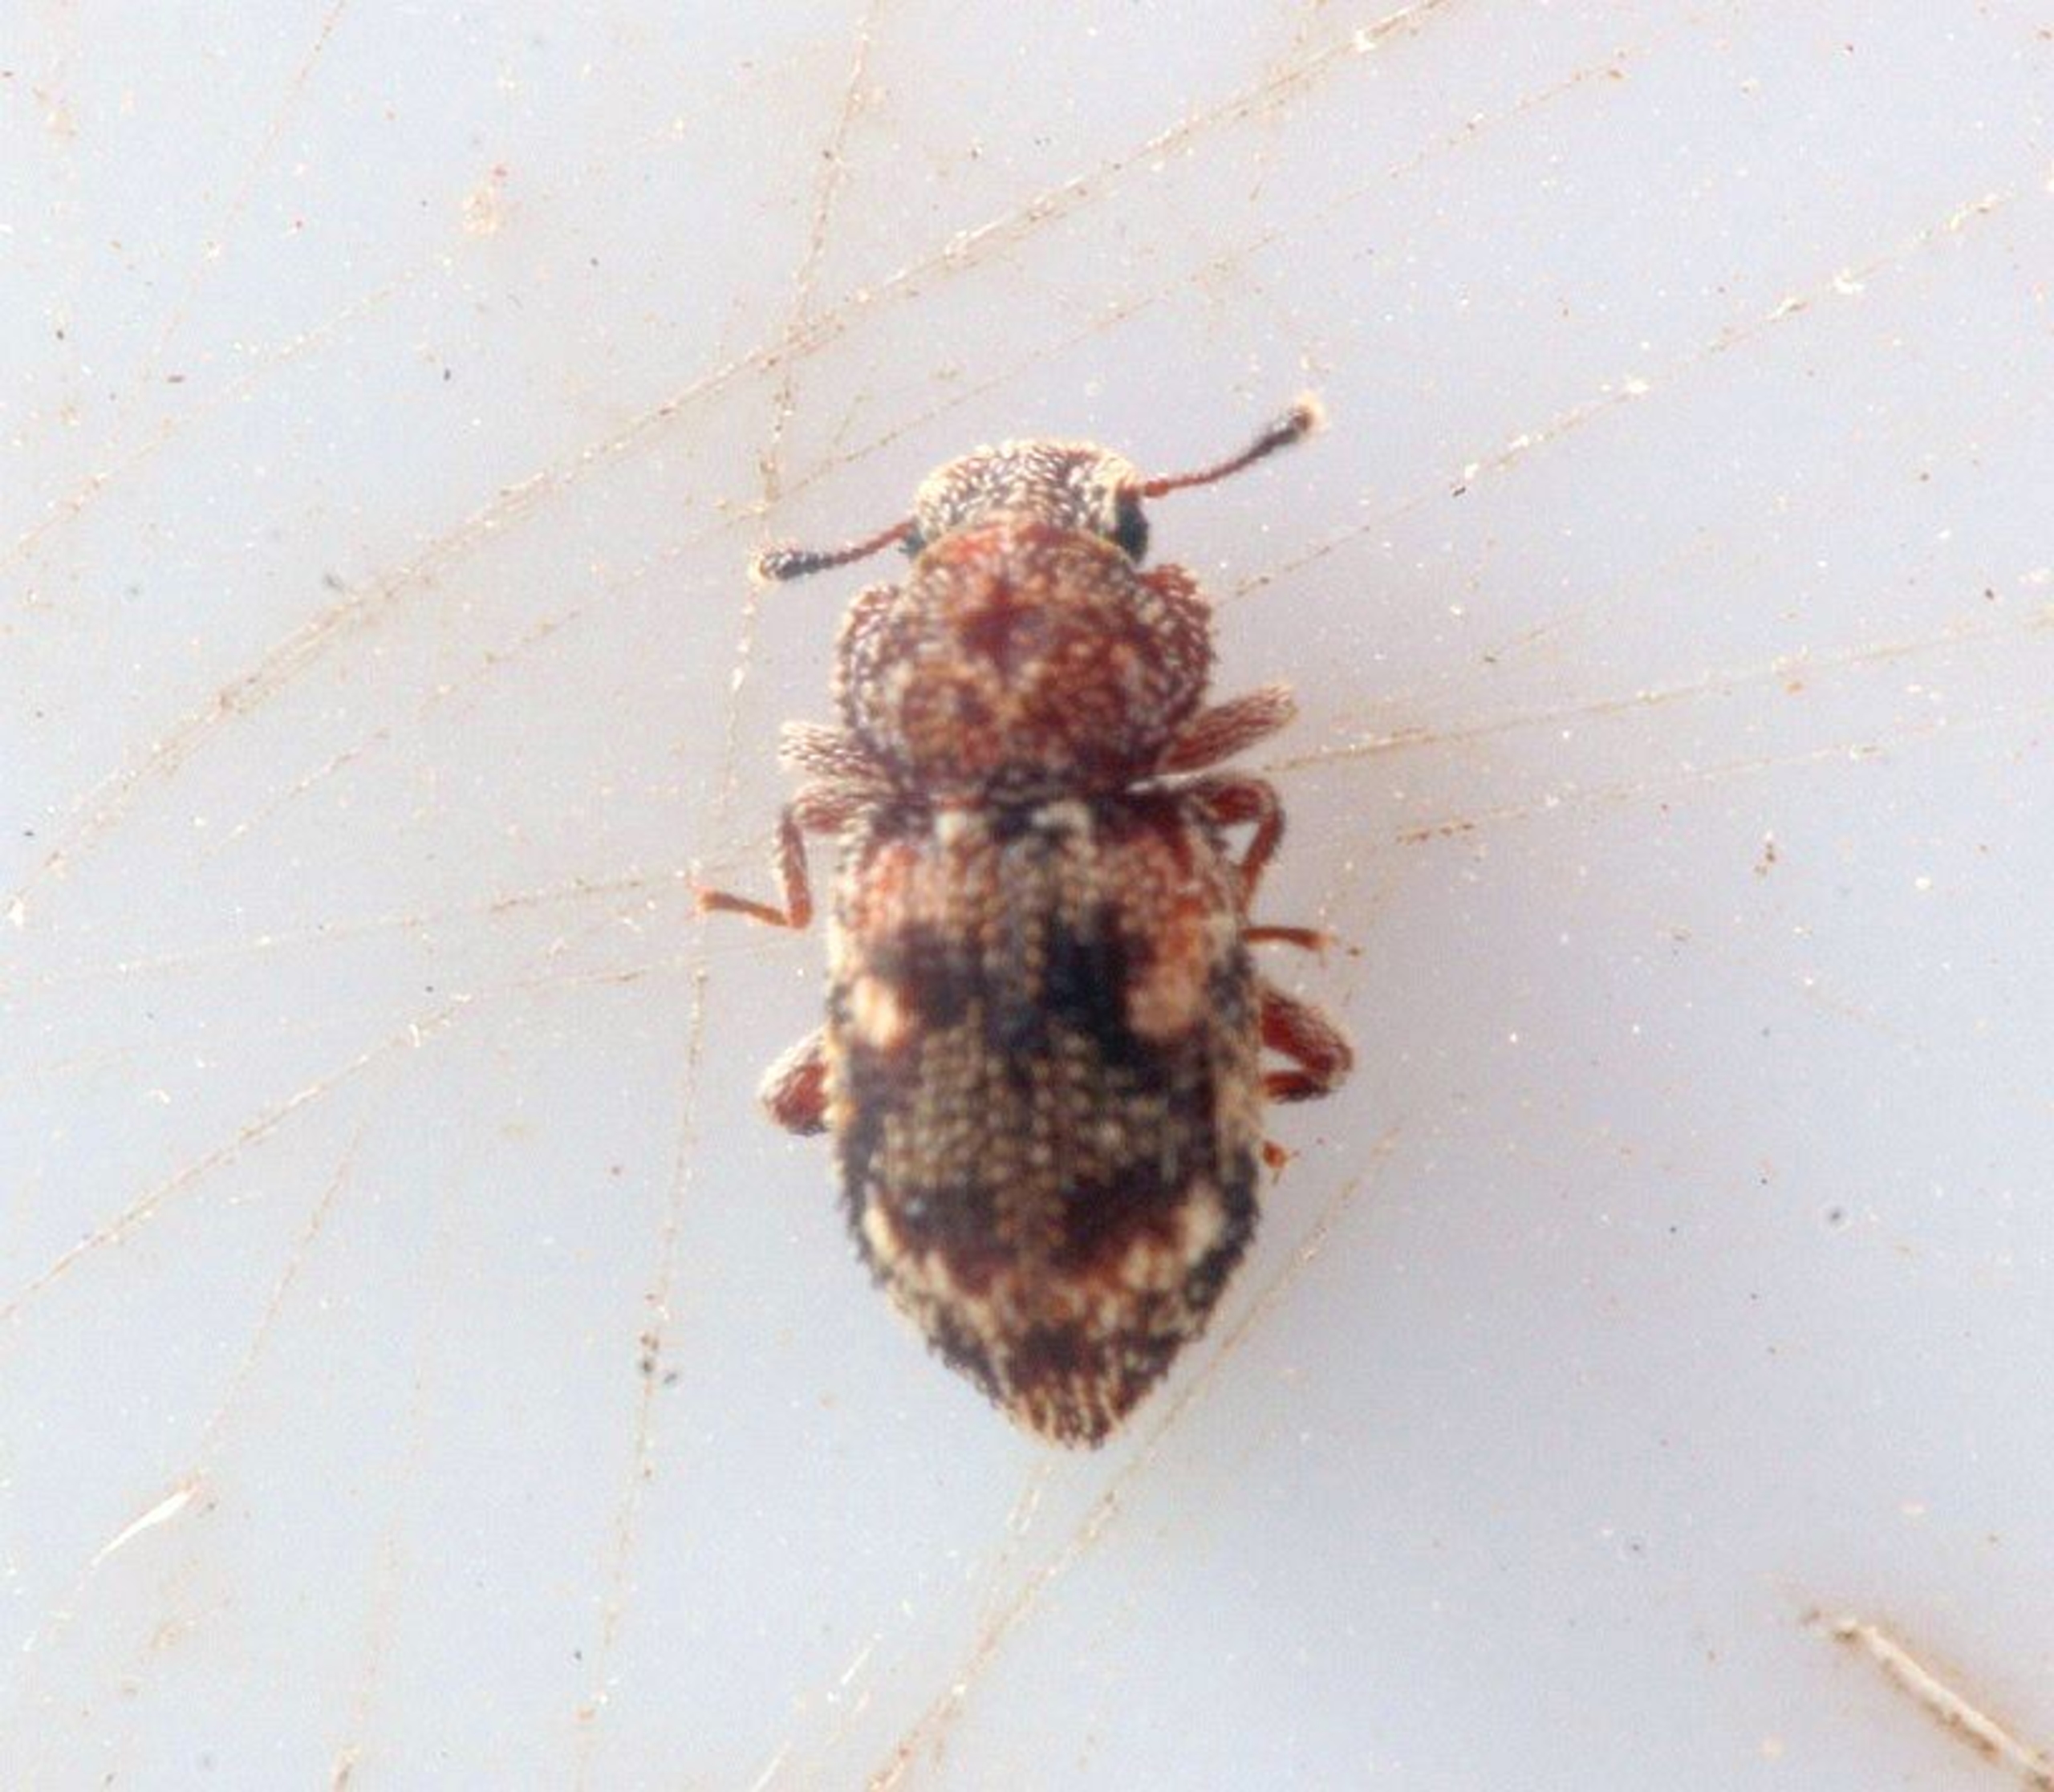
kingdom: Animalia
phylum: Arthropoda
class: Insecta
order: Coleoptera
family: Zopheridae
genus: Coxelus
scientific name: Coxelus pictus
